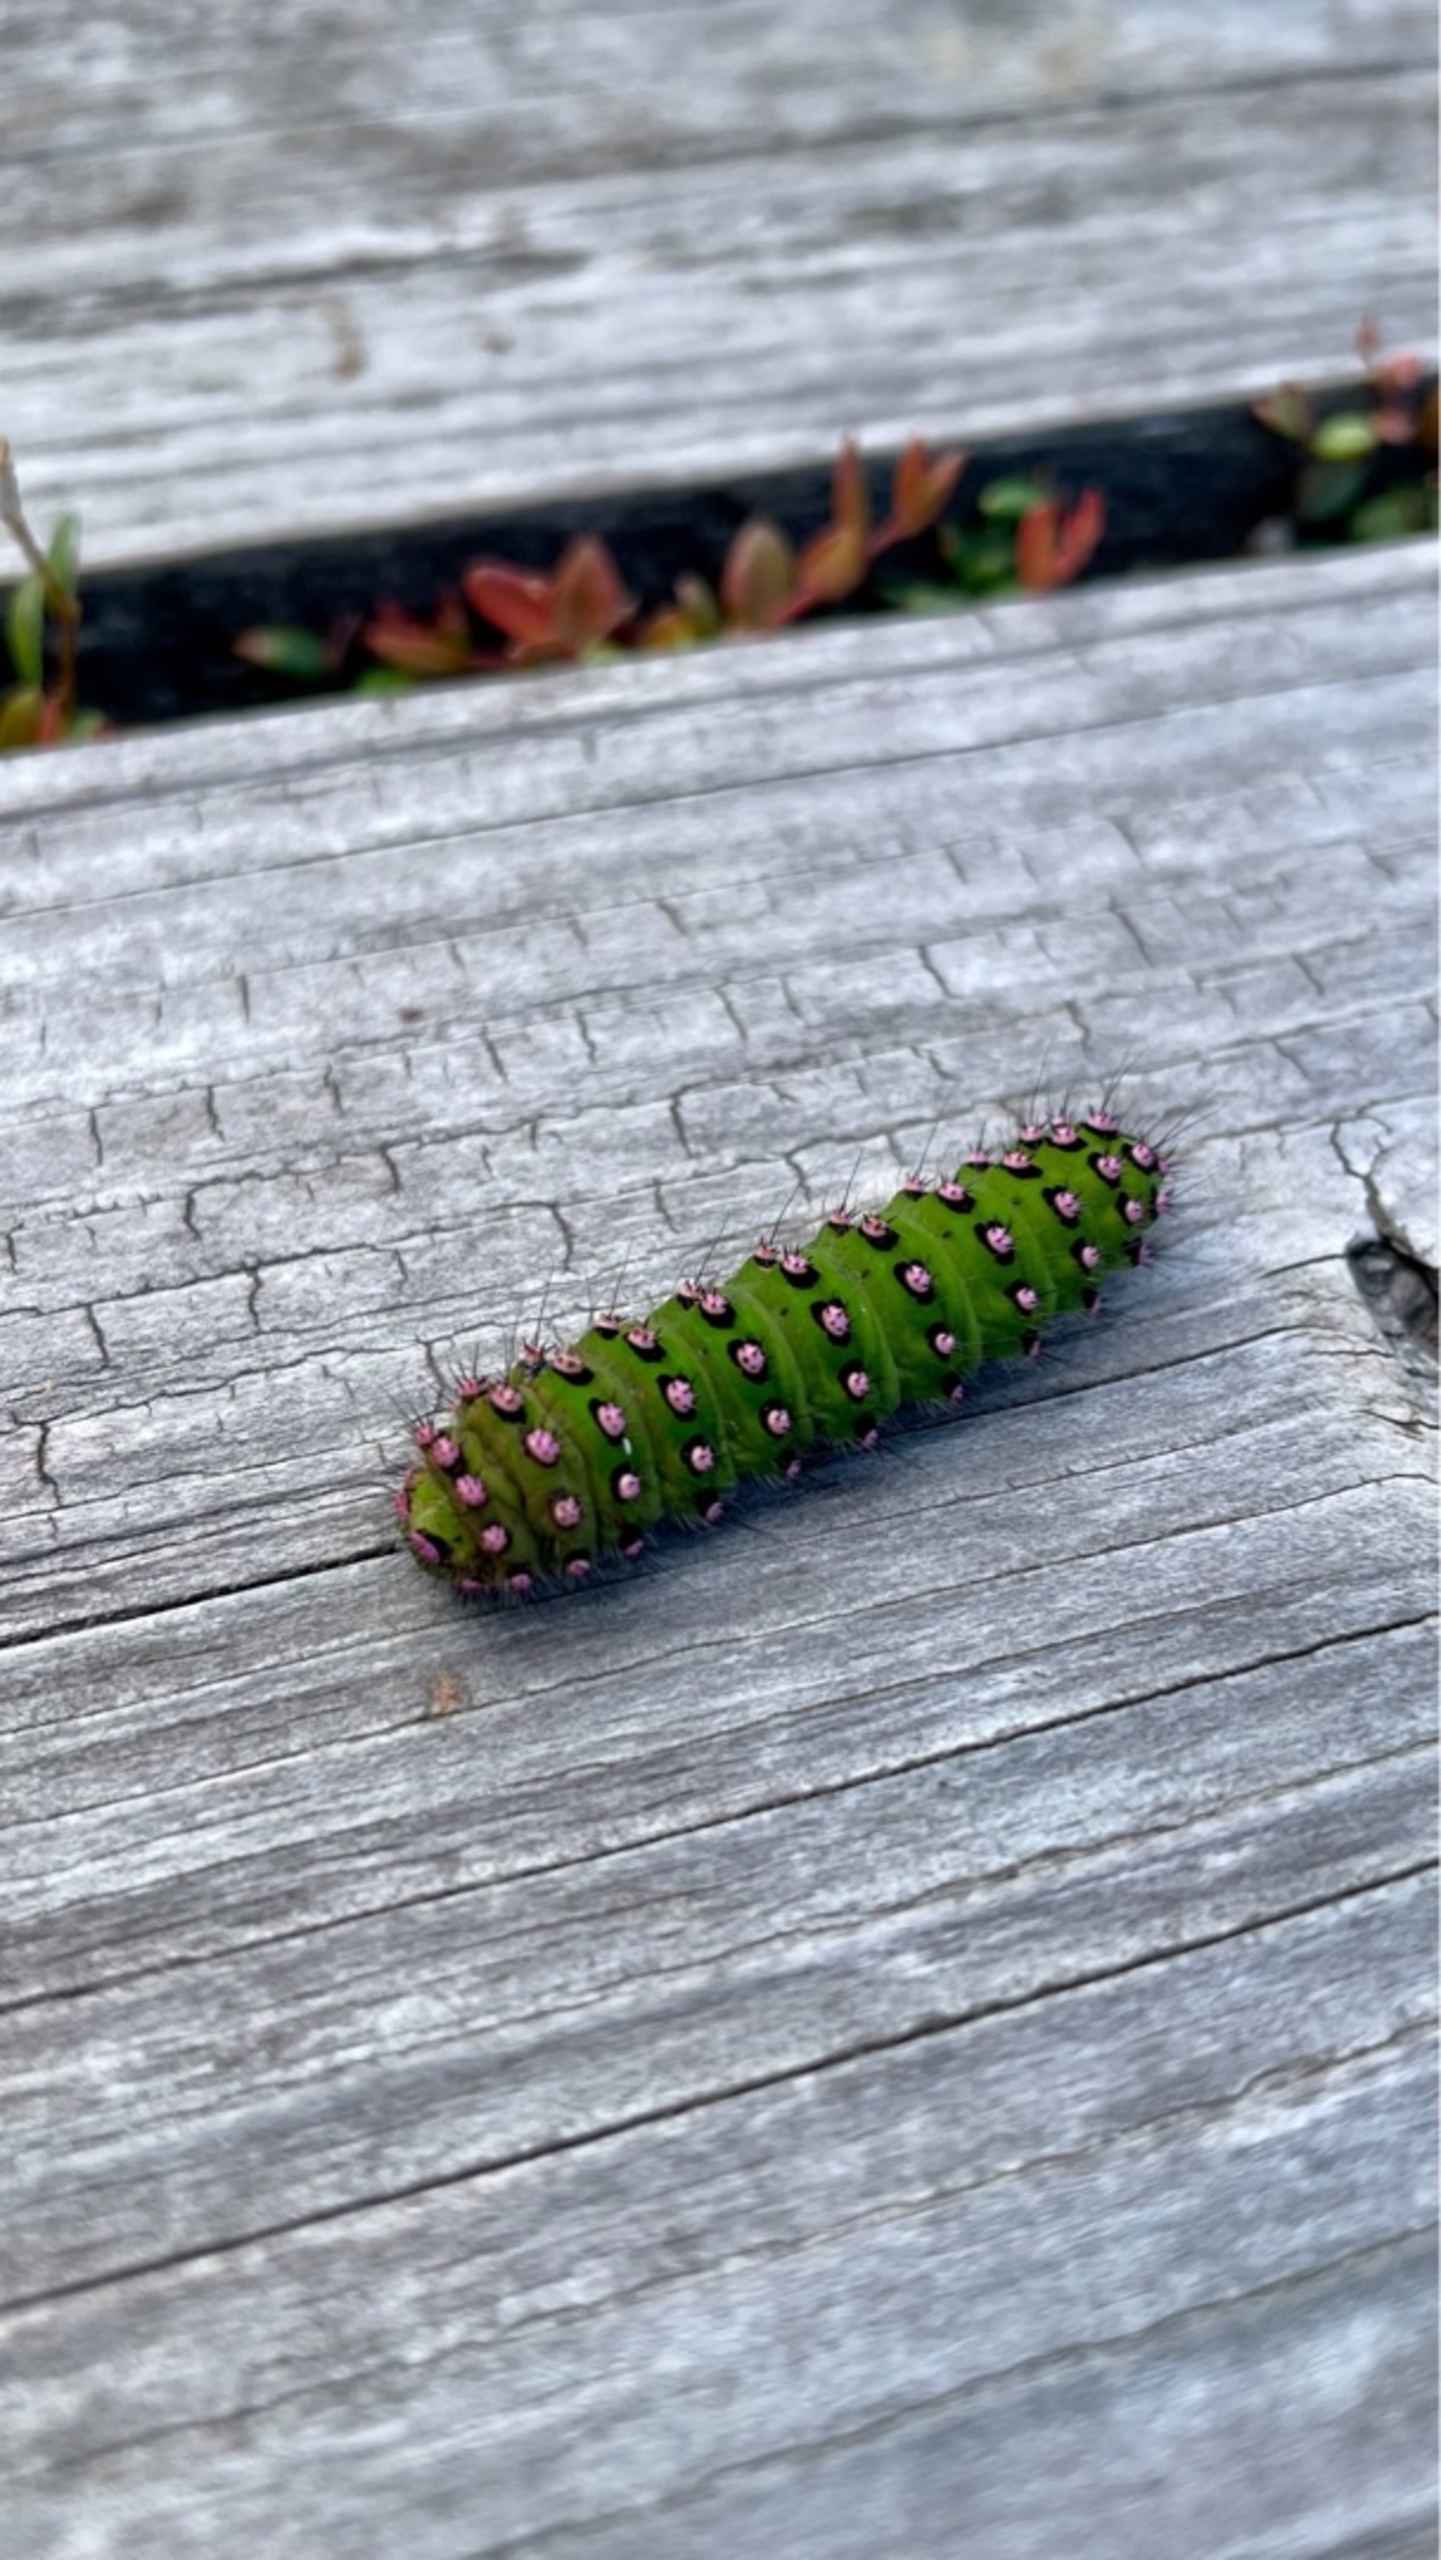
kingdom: Animalia
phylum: Arthropoda
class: Insecta
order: Lepidoptera
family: Saturniidae
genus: Saturnia
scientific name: Saturnia pavonia
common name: Lille natpåfugleøje
